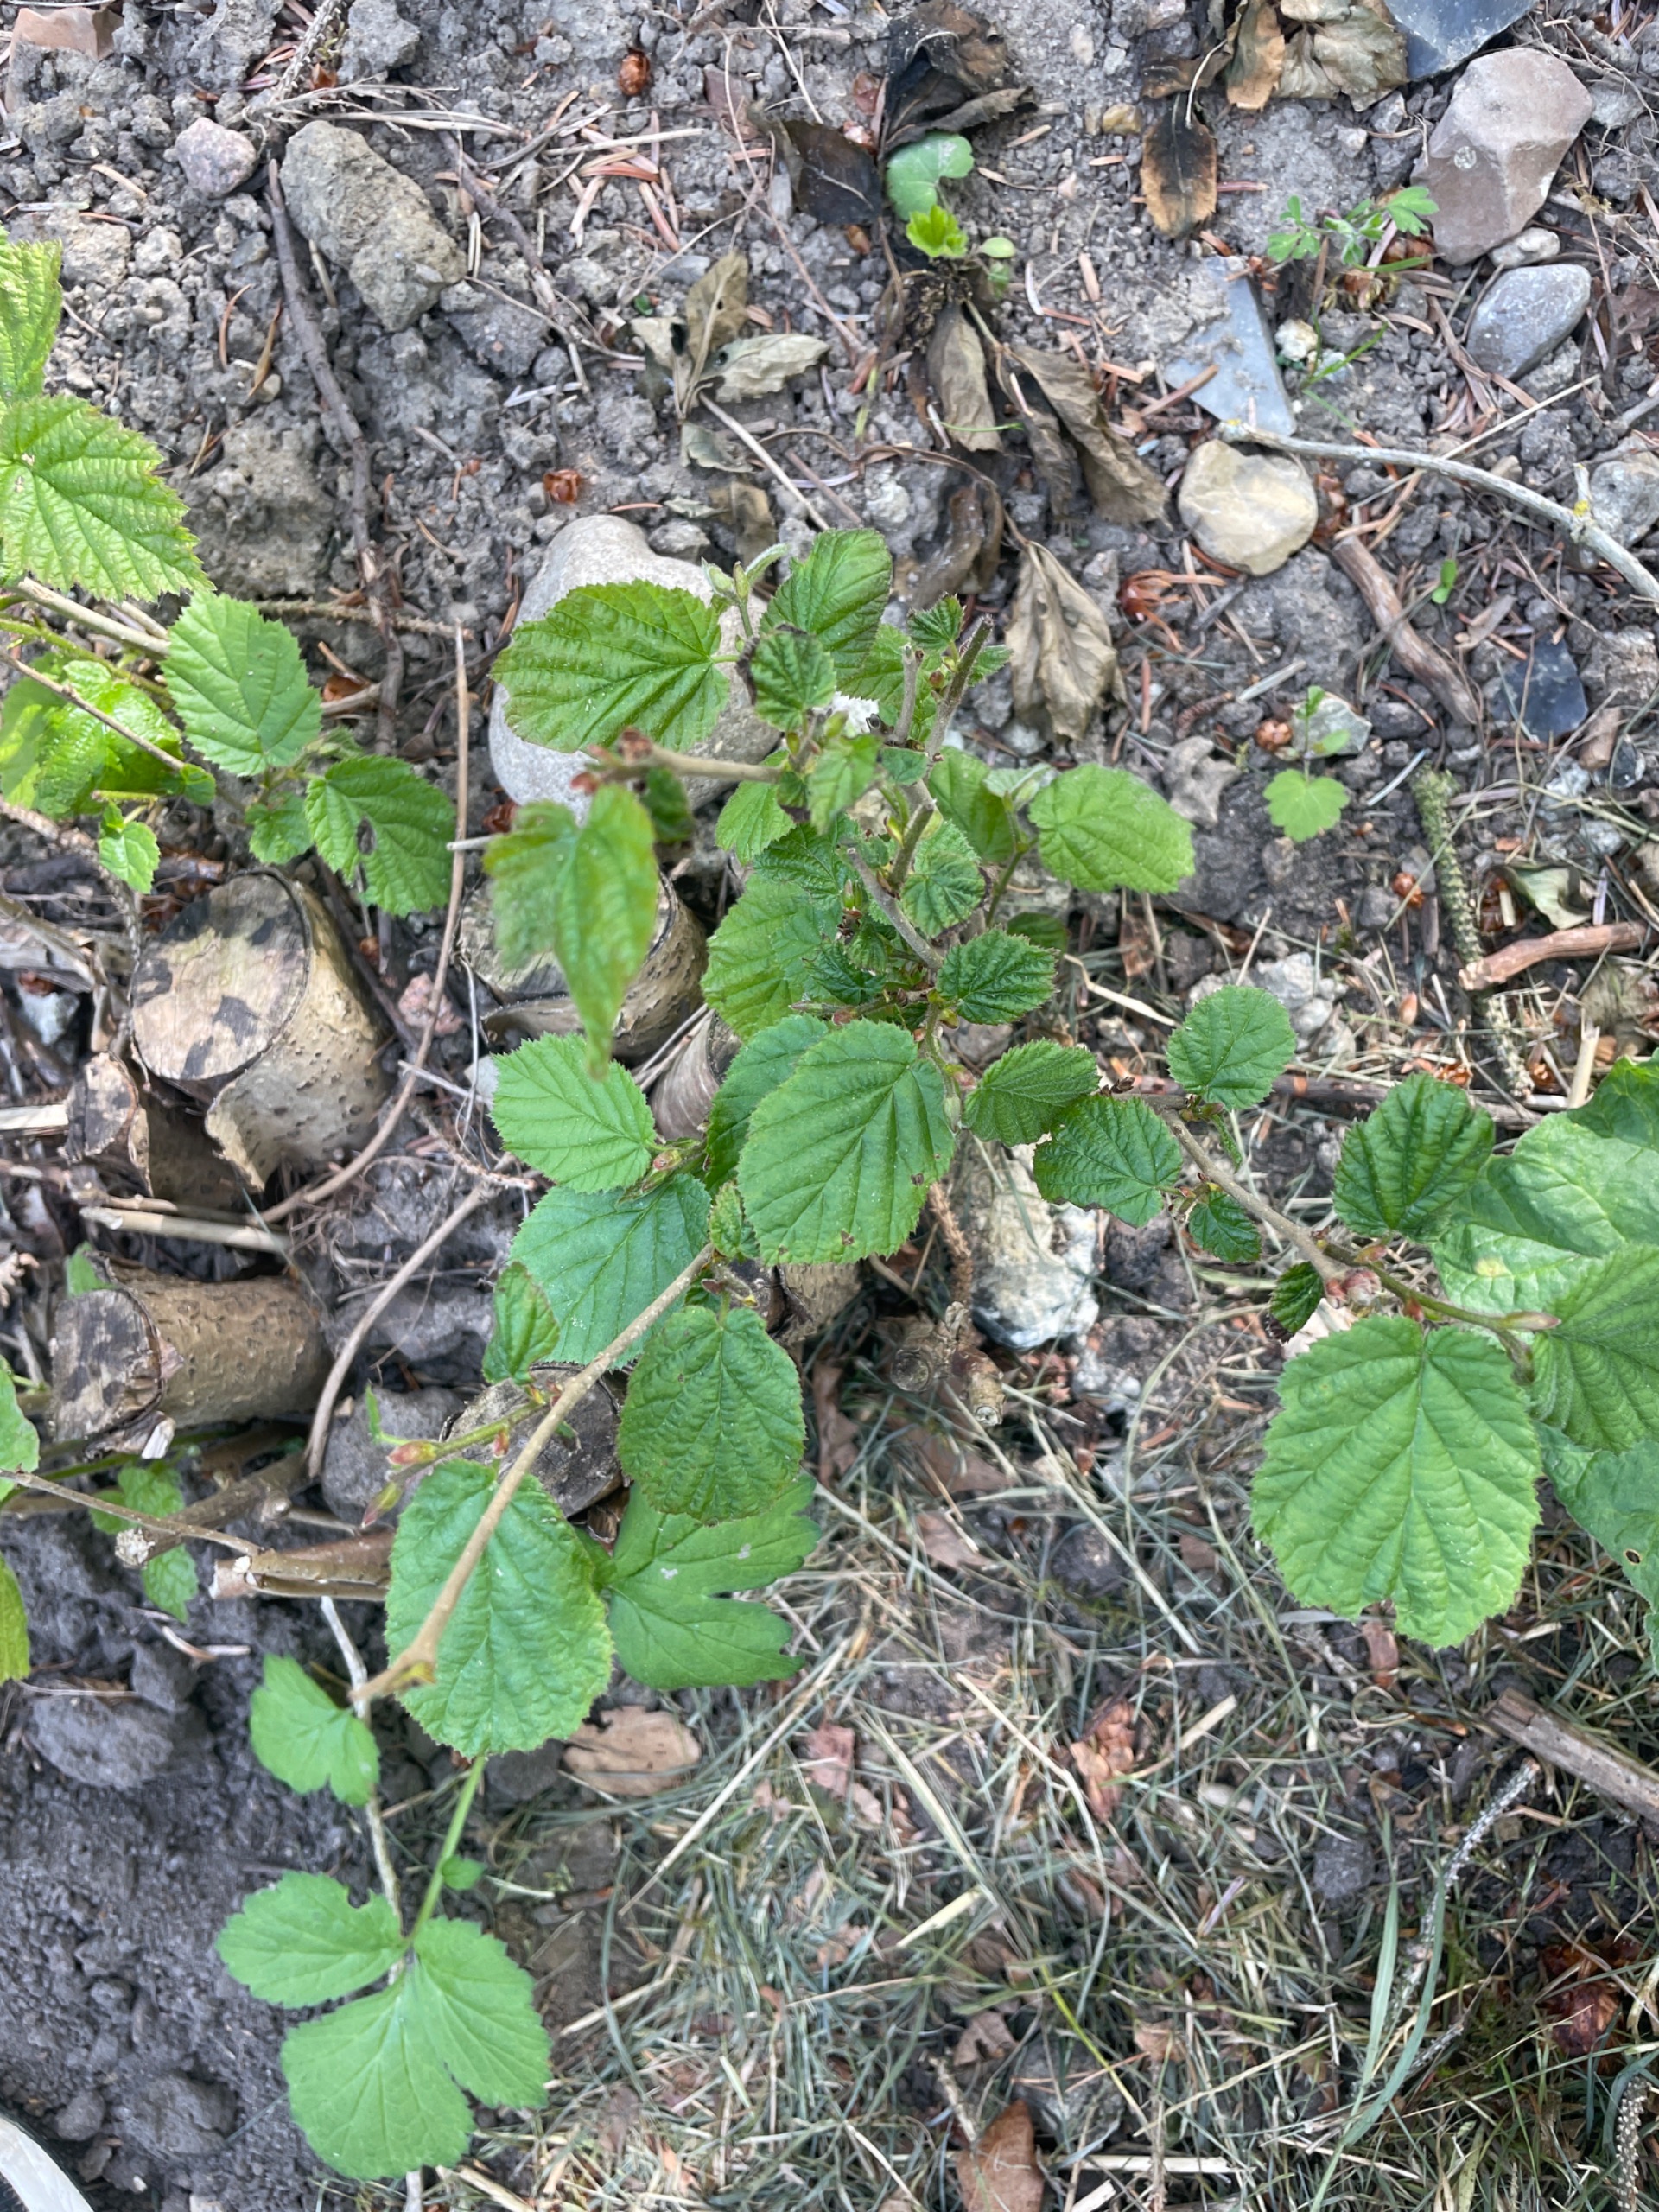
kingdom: Plantae
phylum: Tracheophyta
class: Magnoliopsida
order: Fagales
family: Betulaceae
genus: Corylus
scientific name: Corylus avellana
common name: Hassel
